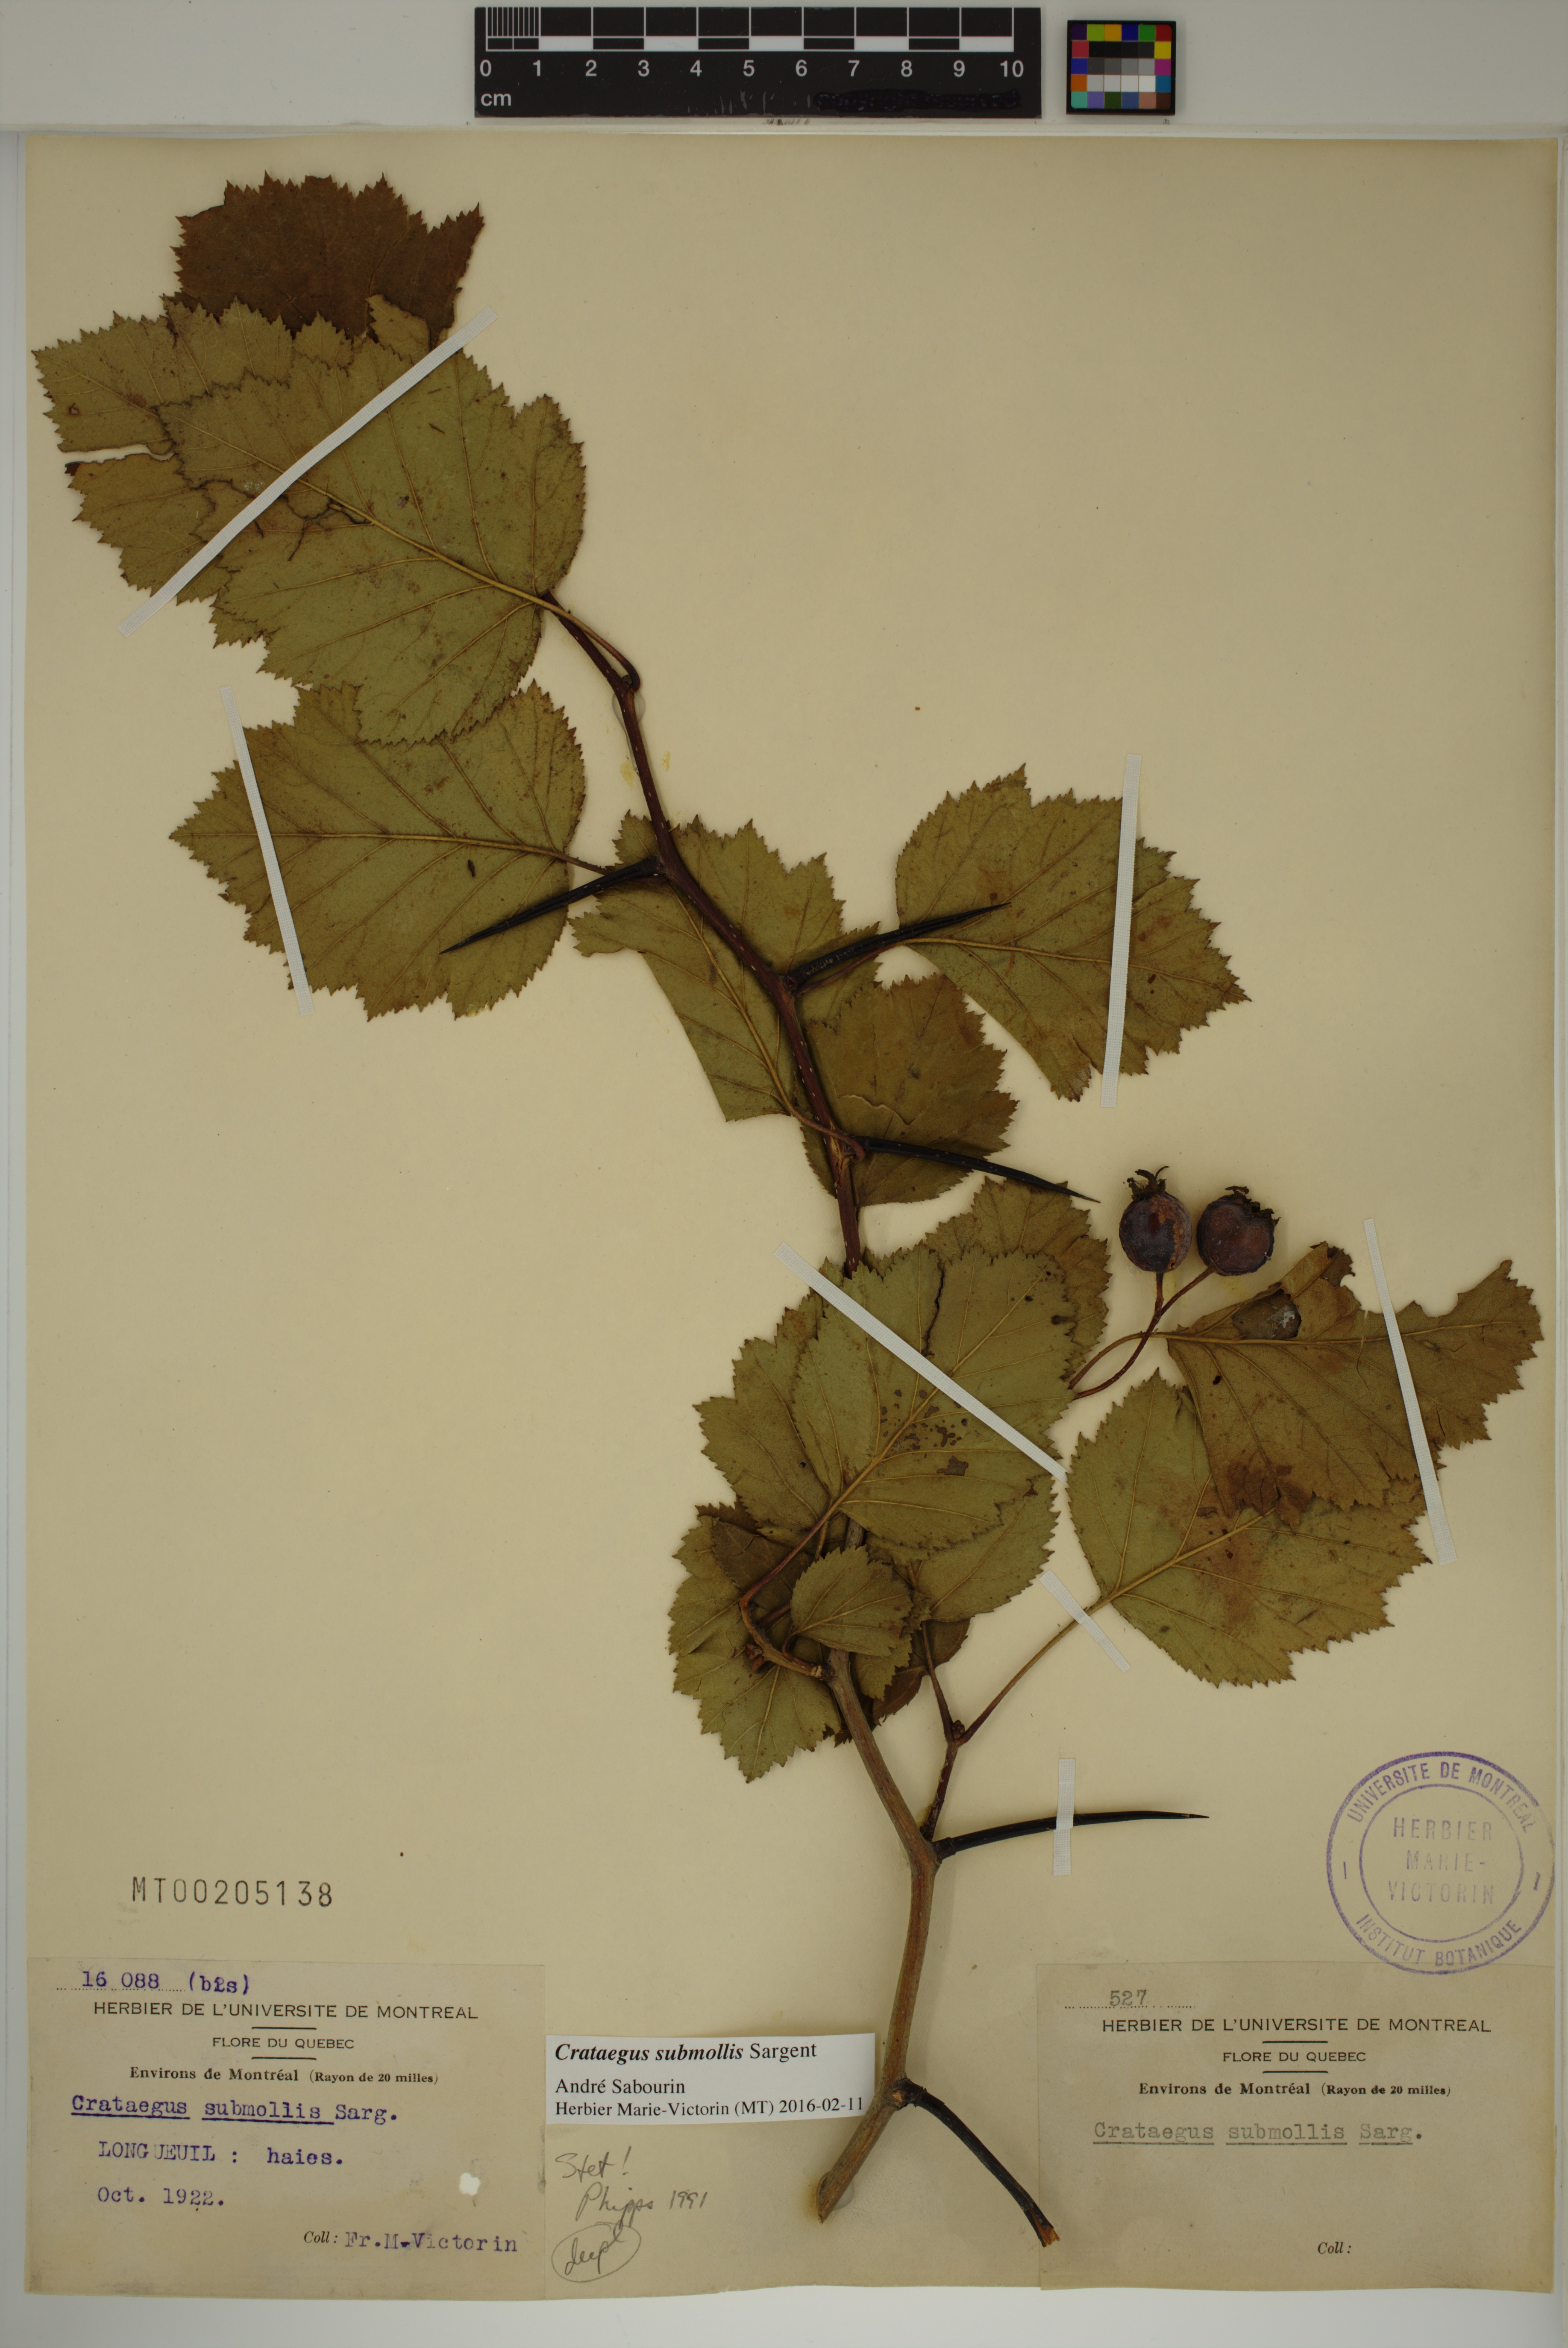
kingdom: Plantae
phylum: Tracheophyta
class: Magnoliopsida
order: Rosales
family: Rosaceae
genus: Crataegus
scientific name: Crataegus submollis
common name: Hairy cockspurthorn
